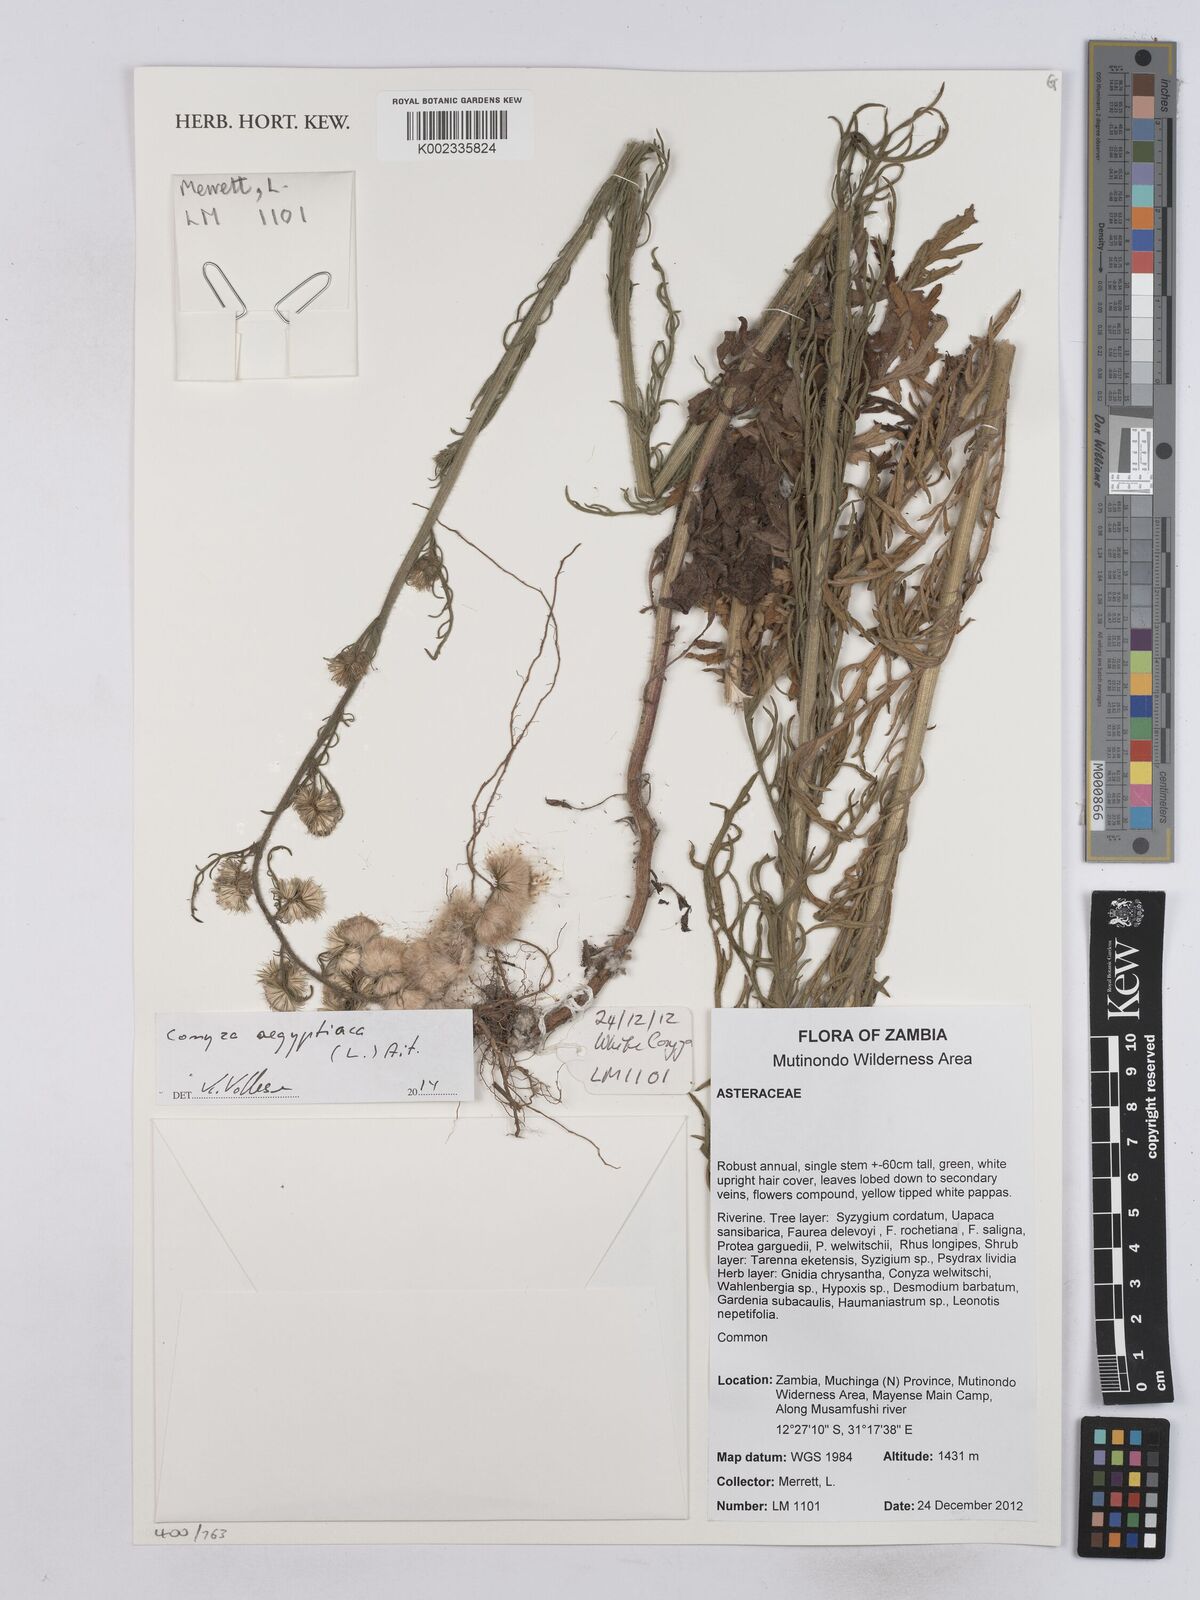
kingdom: Plantae
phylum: Tracheophyta
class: Magnoliopsida
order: Asterales
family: Asteraceae
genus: Nidorella
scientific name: Nidorella aegyptiaca
